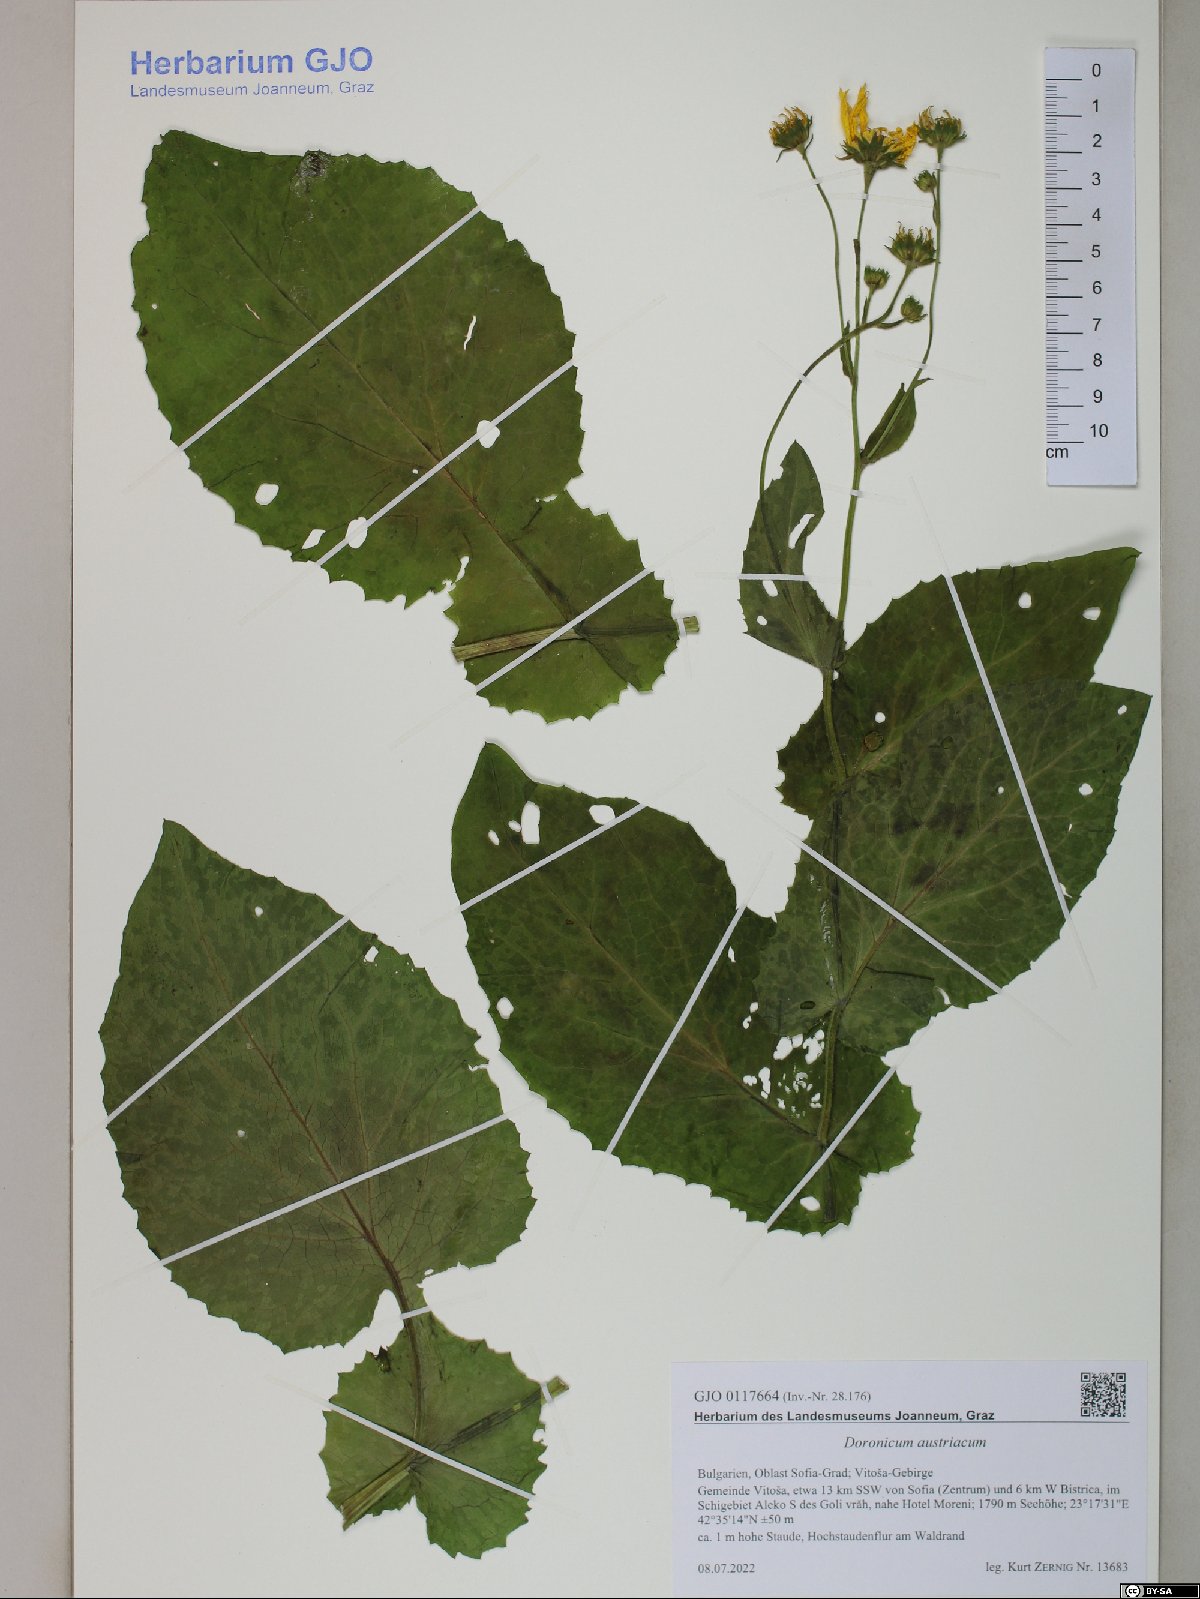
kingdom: Plantae
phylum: Tracheophyta
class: Magnoliopsida
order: Asterales
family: Asteraceae
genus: Doronicum
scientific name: Doronicum austriacum
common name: Austrian leopard's-bane
